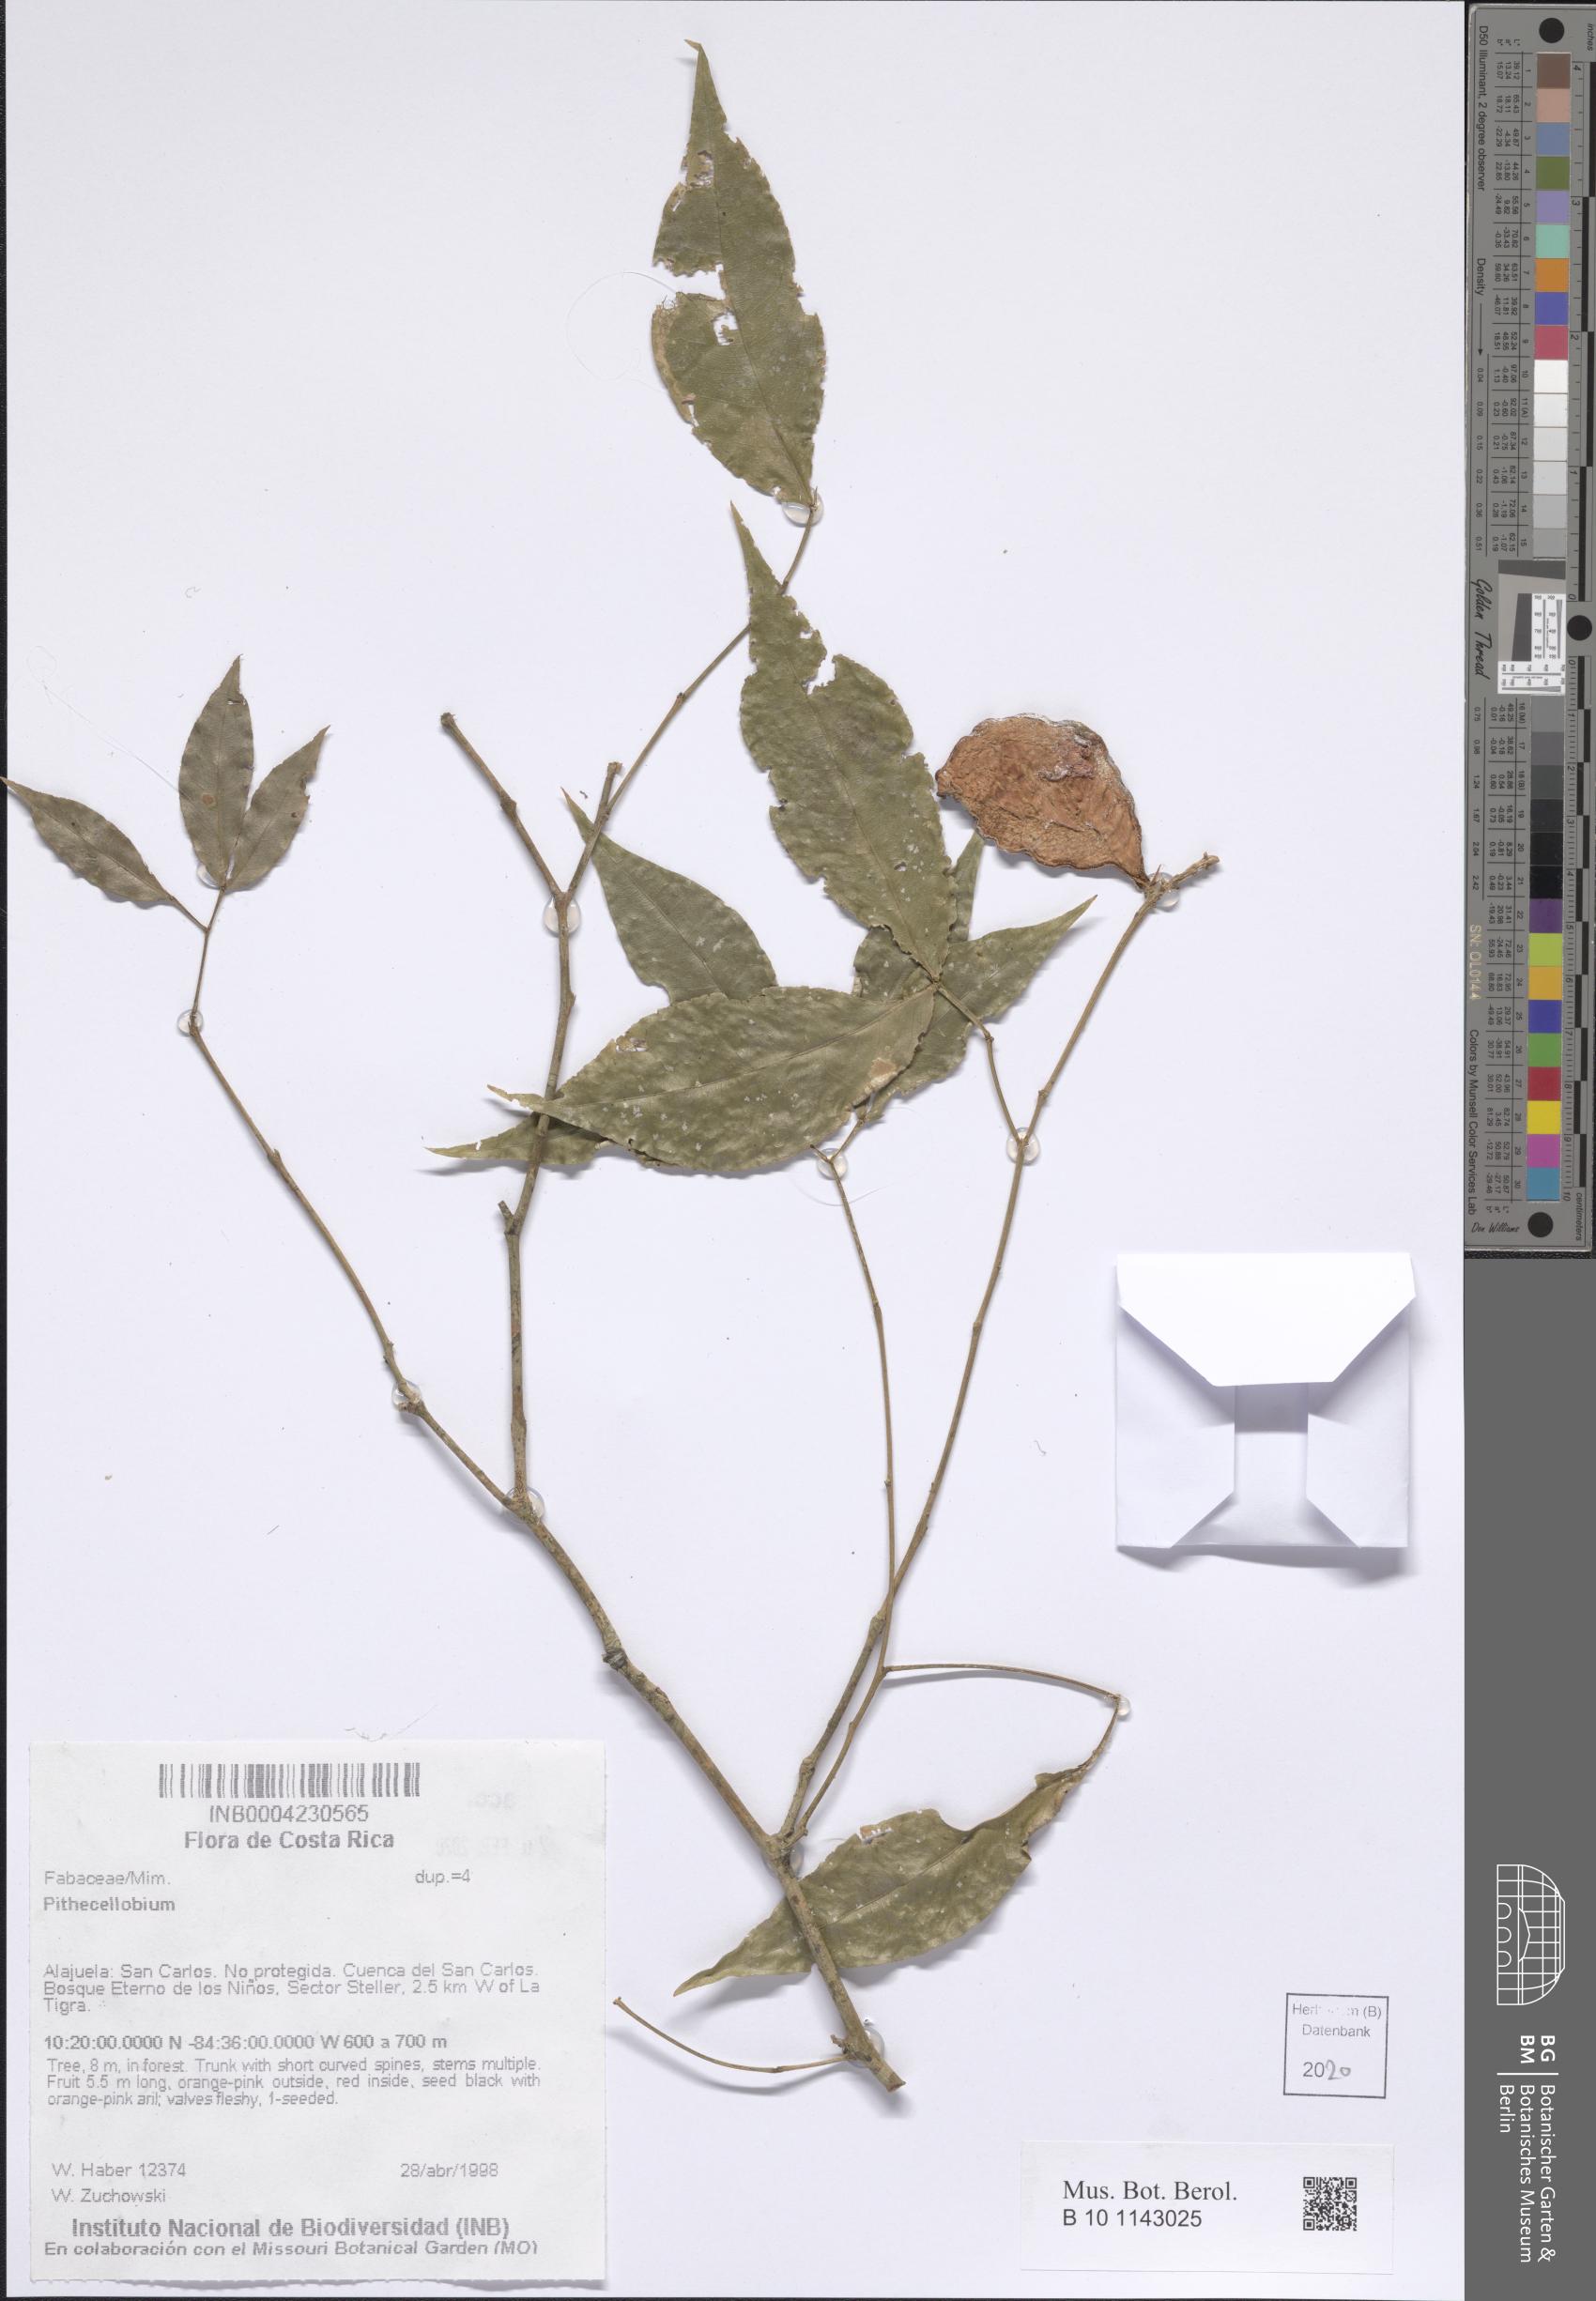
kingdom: Plantae
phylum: Tracheophyta
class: Magnoliopsida
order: Fabales
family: Fabaceae
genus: Pithecellobium
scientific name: Pithecellobium
